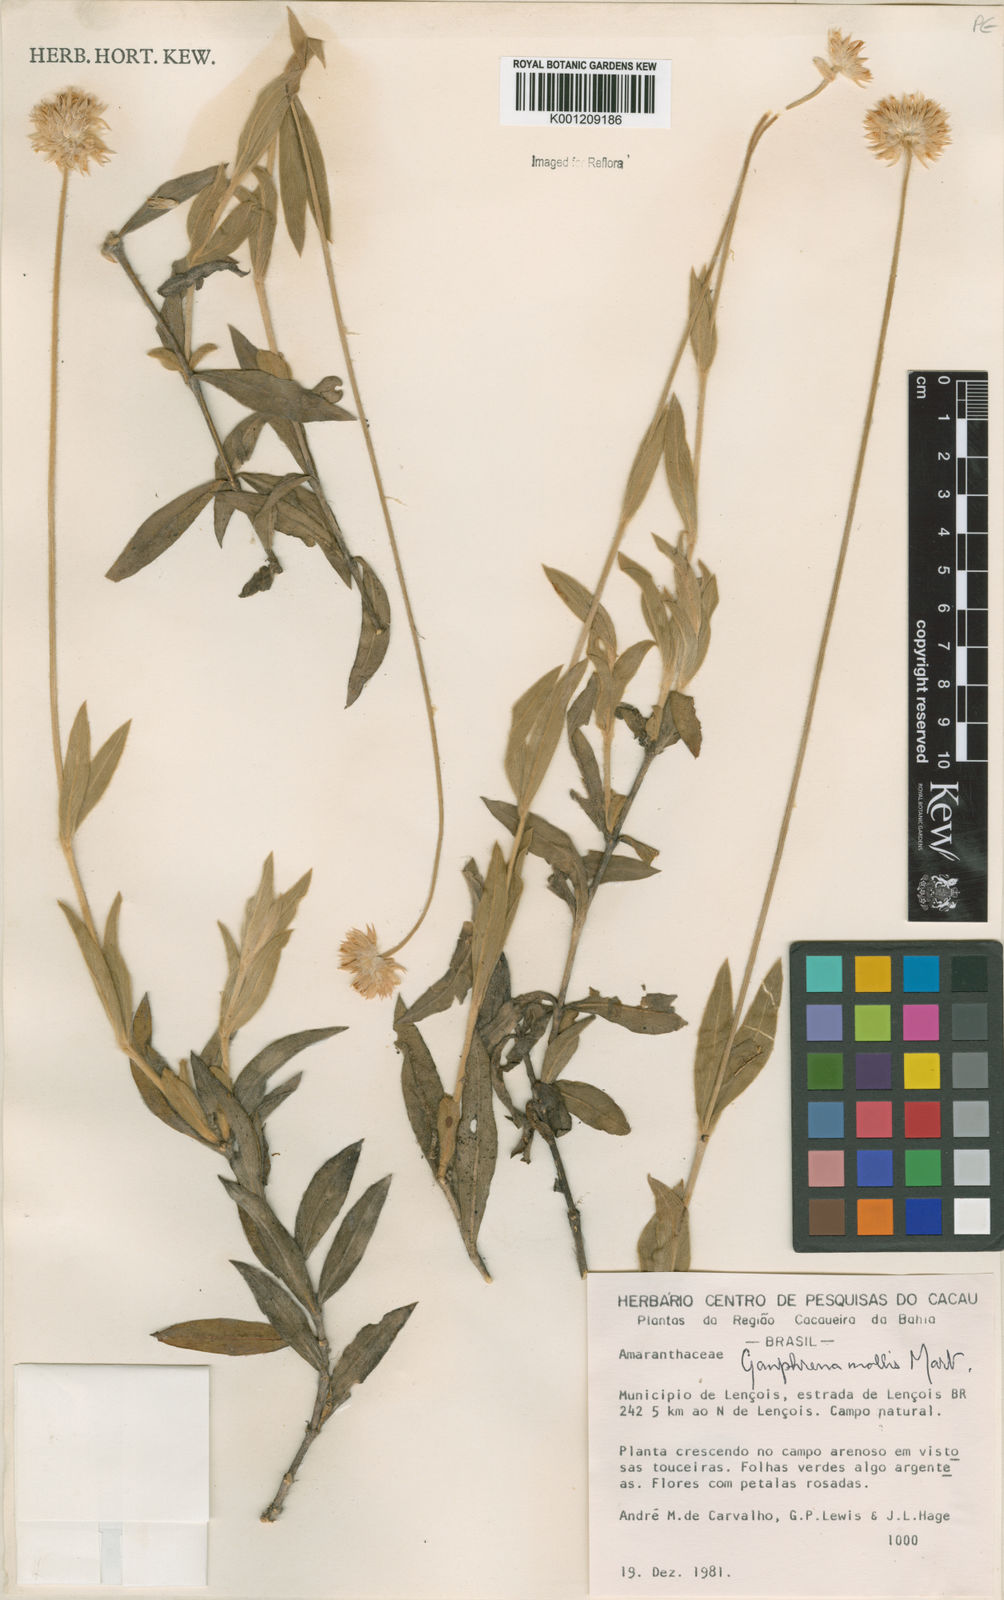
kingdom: Plantae
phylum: Tracheophyta
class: Magnoliopsida
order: Caryophyllales
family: Amaranthaceae
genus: Gomphrena
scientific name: Gomphrena mollis
